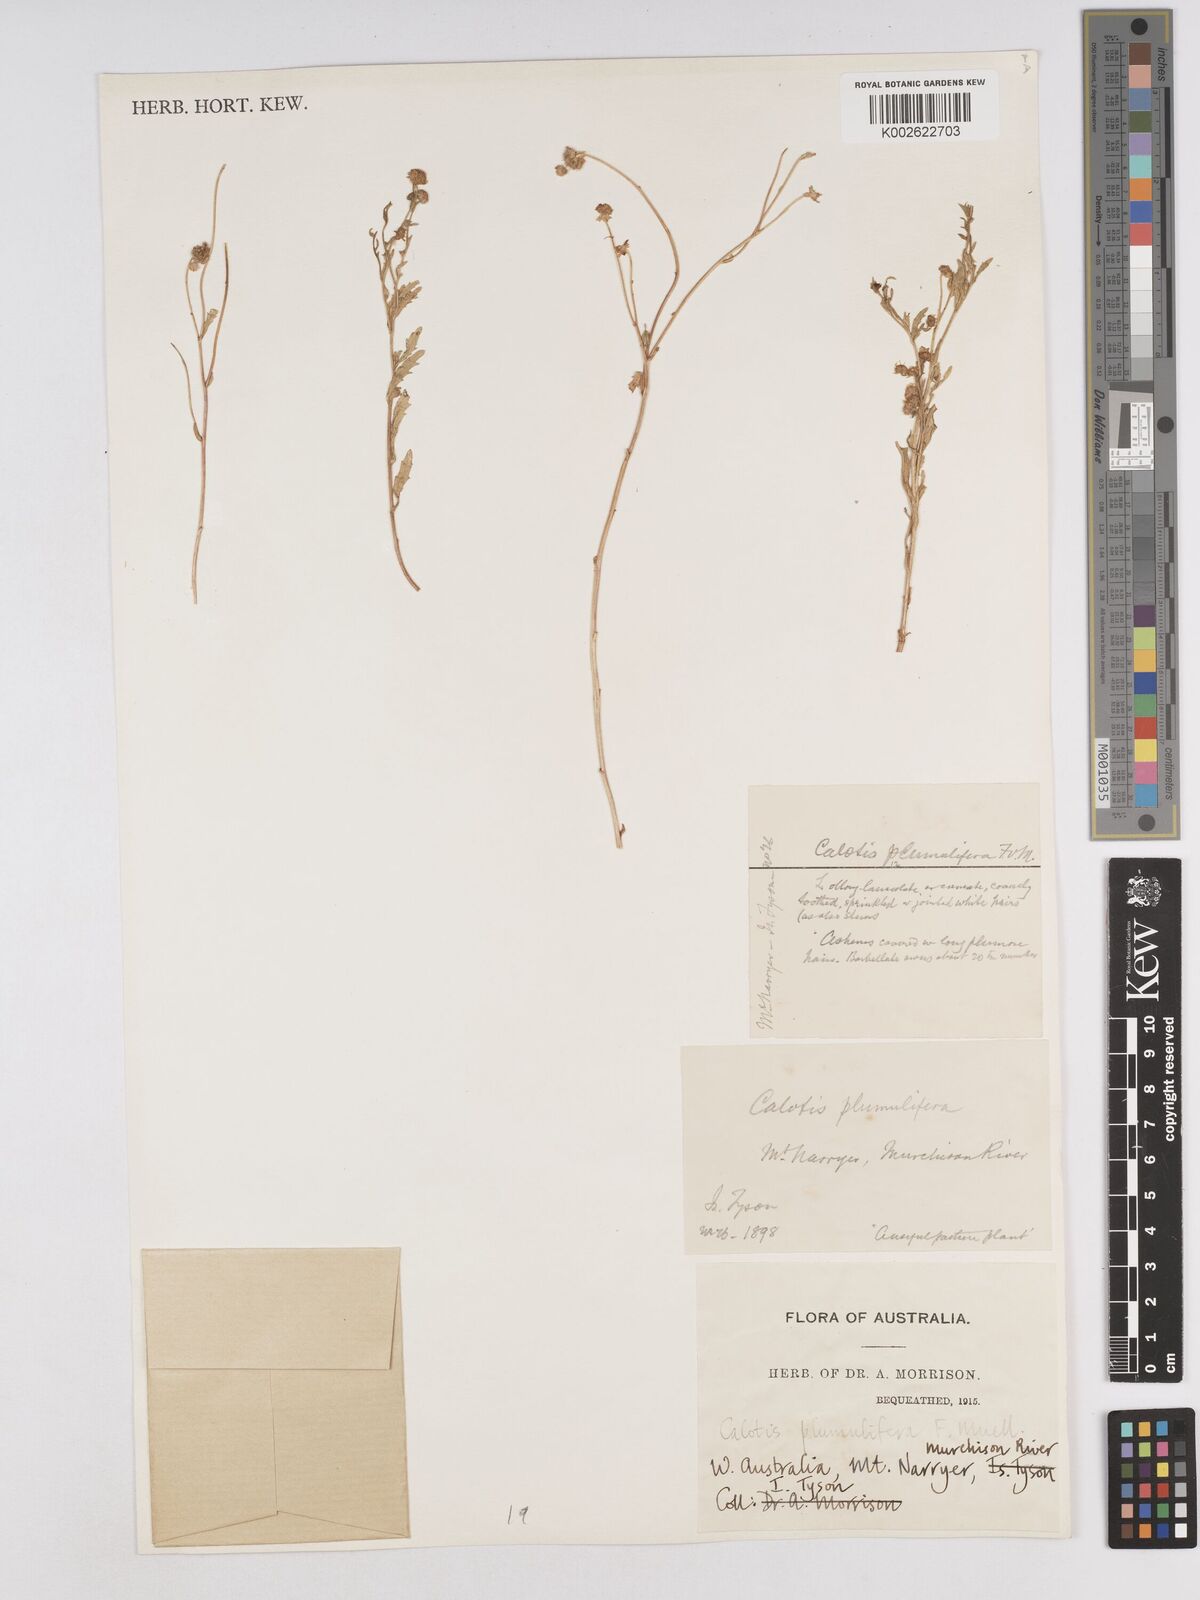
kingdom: Plantae
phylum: Tracheophyta
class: Magnoliopsida
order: Asterales
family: Asteraceae
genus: Calotis
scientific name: Calotis multicaulis
